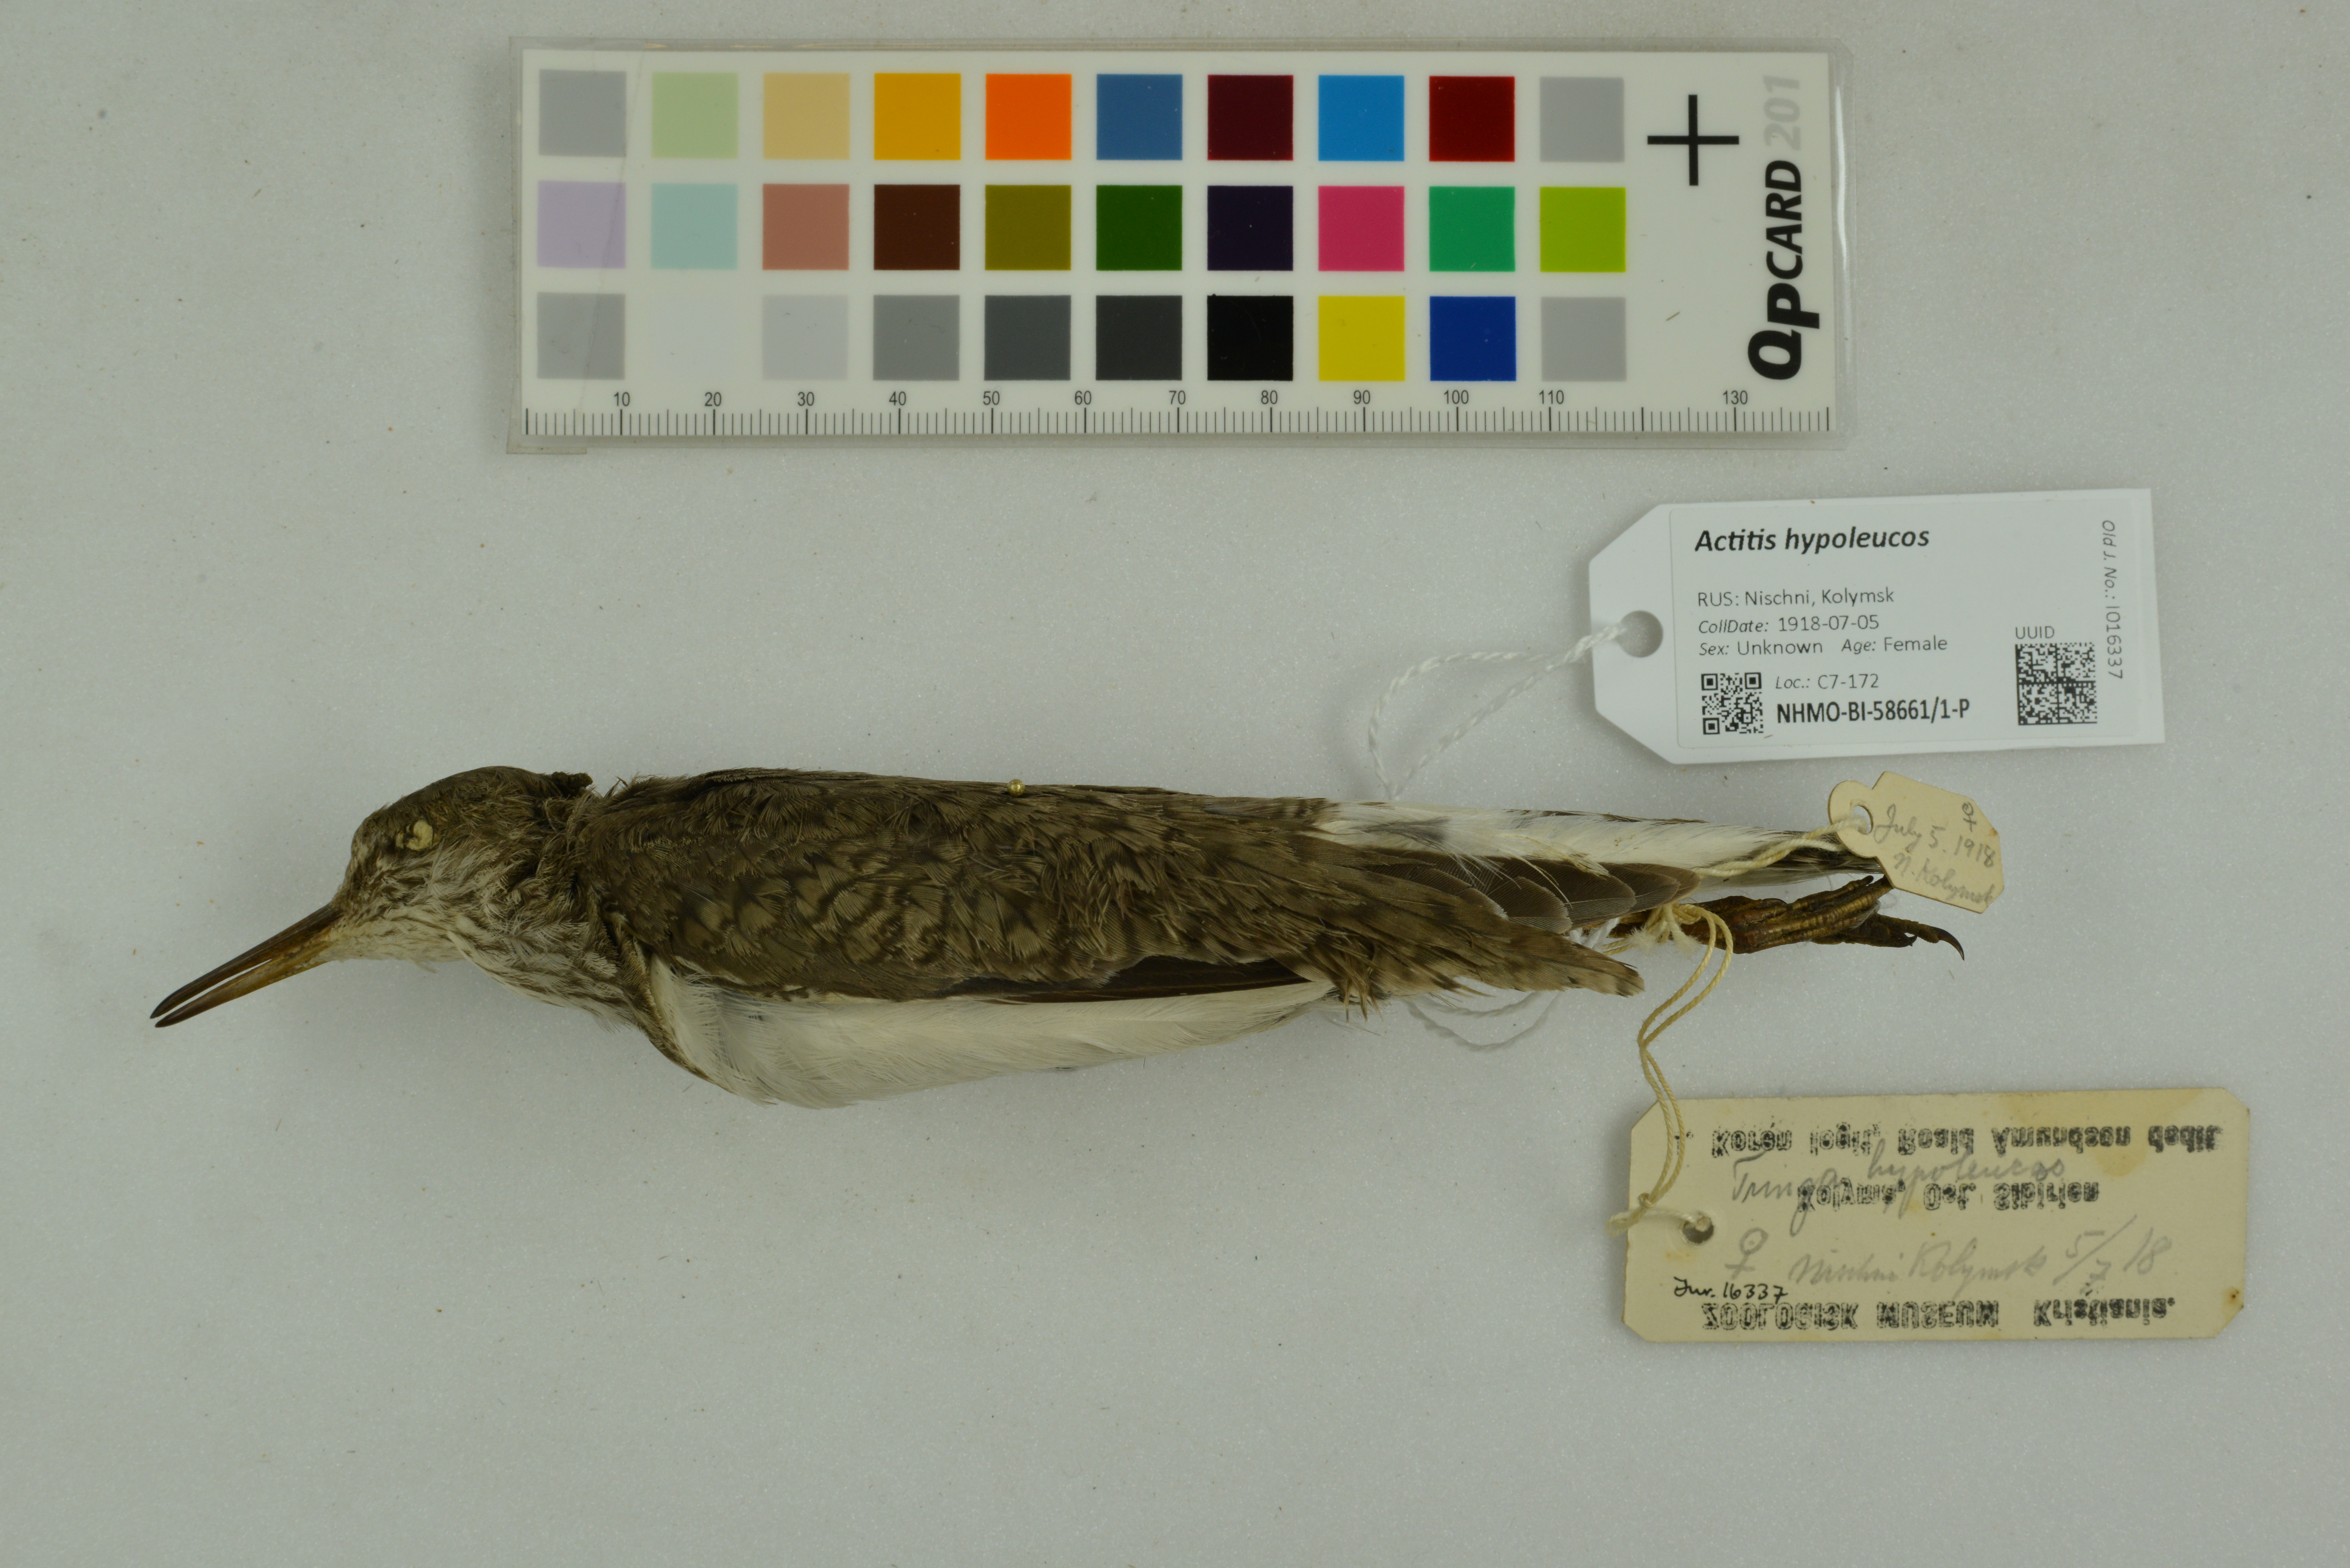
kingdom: Animalia
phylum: Chordata
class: Aves
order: Charadriiformes
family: Scolopacidae
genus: Actitis
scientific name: Actitis hypoleucos
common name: Common sandpiper
